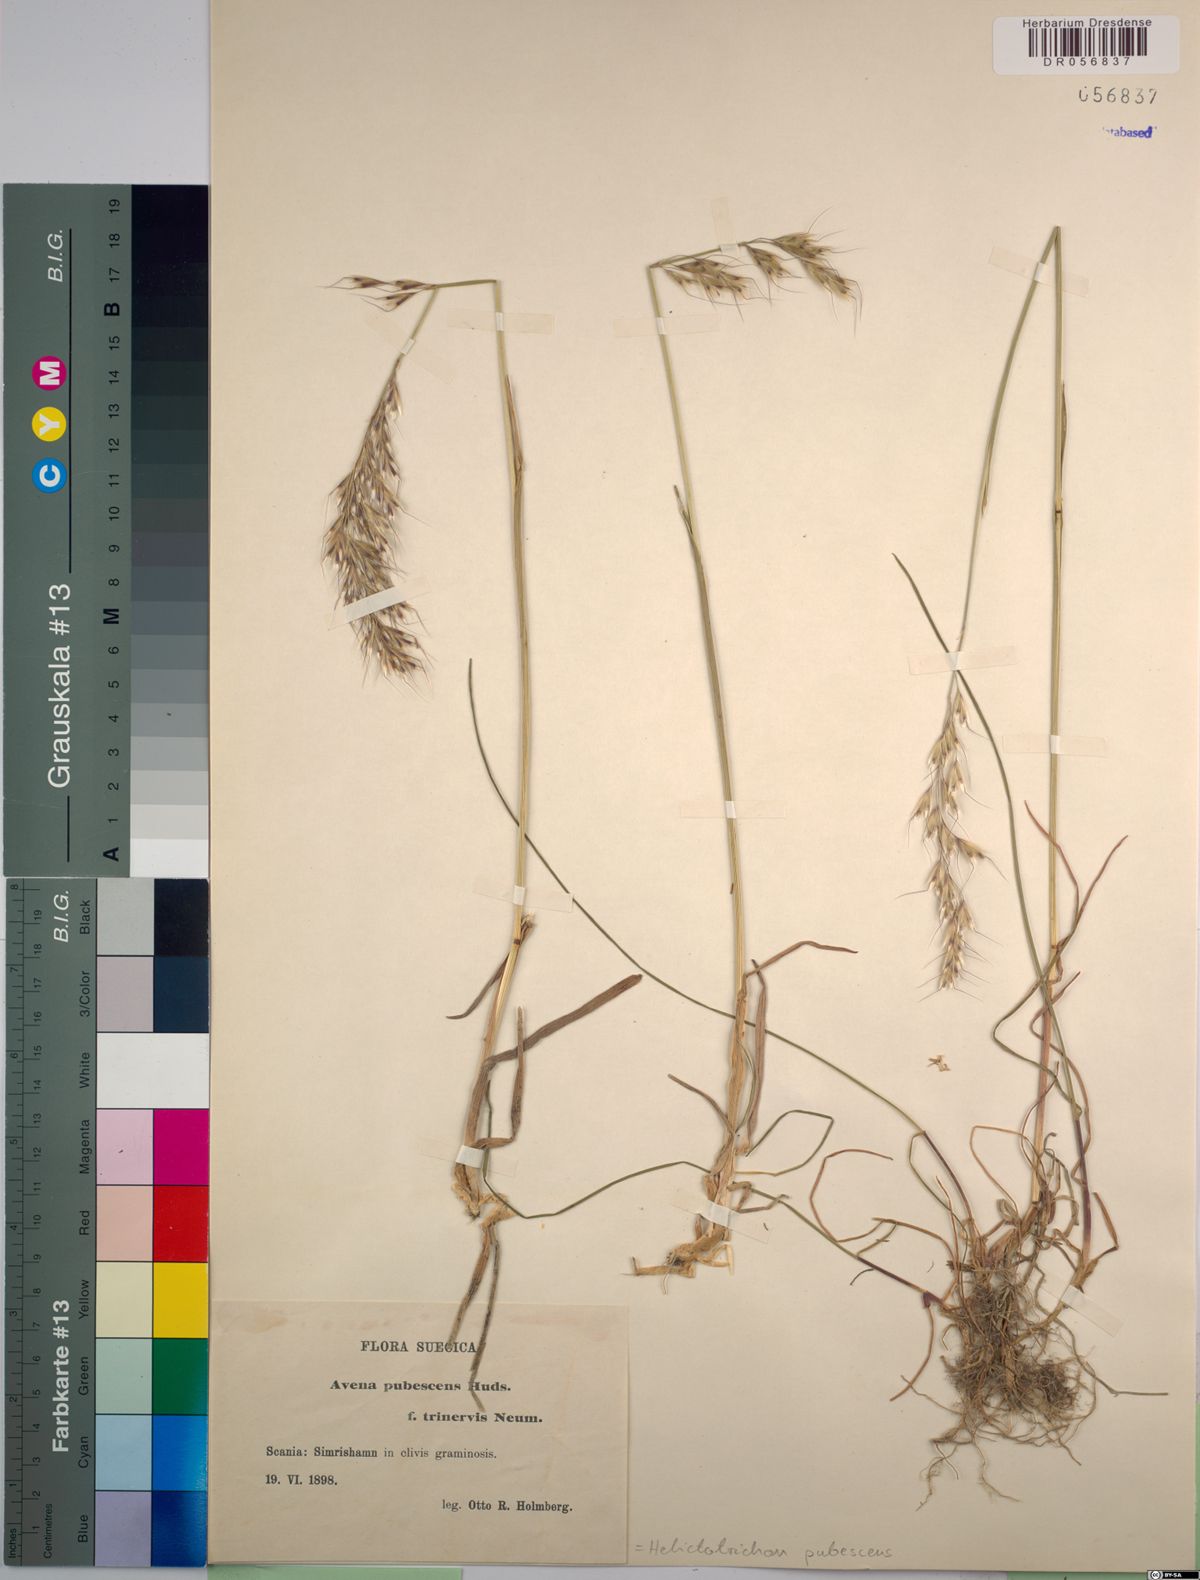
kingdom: Plantae
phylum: Tracheophyta
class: Liliopsida
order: Poales
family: Poaceae
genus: Avenula
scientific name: Avenula pubescens
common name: Downy alpine oatgrass
